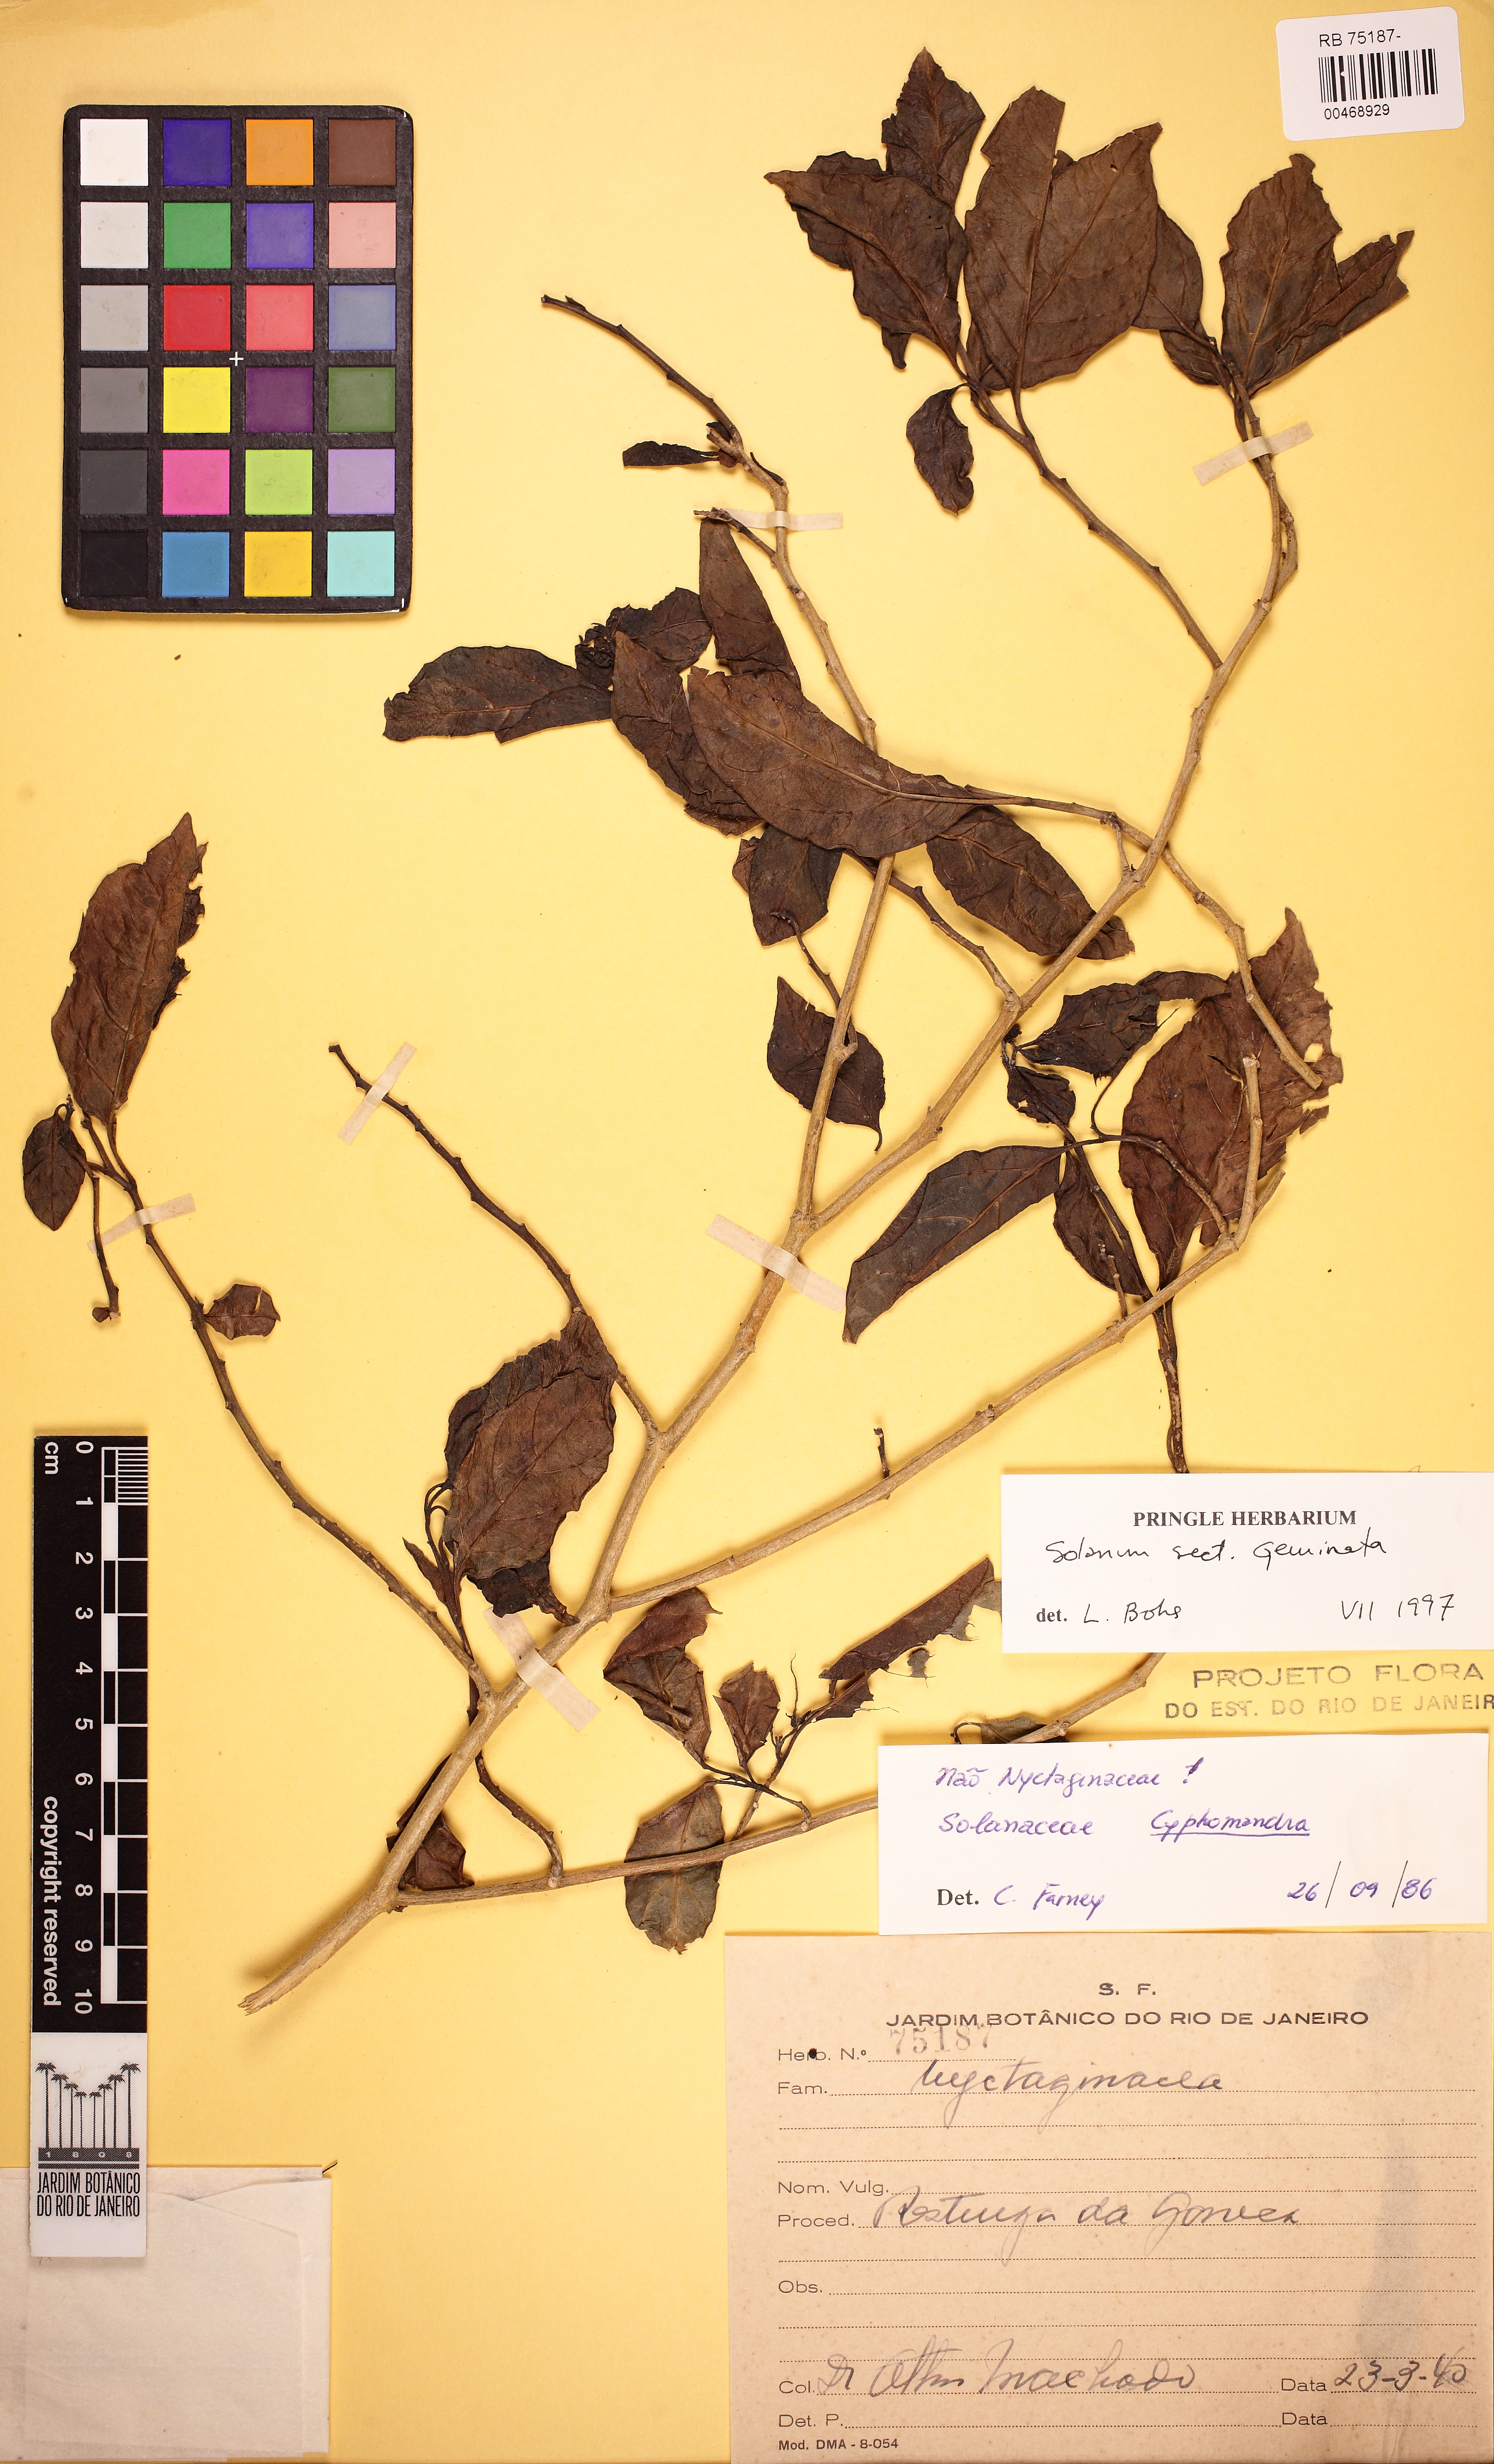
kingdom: Plantae
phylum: Tracheophyta
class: Magnoliopsida
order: Solanales
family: Solanaceae
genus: Solanum
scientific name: Solanum pseudoquina
